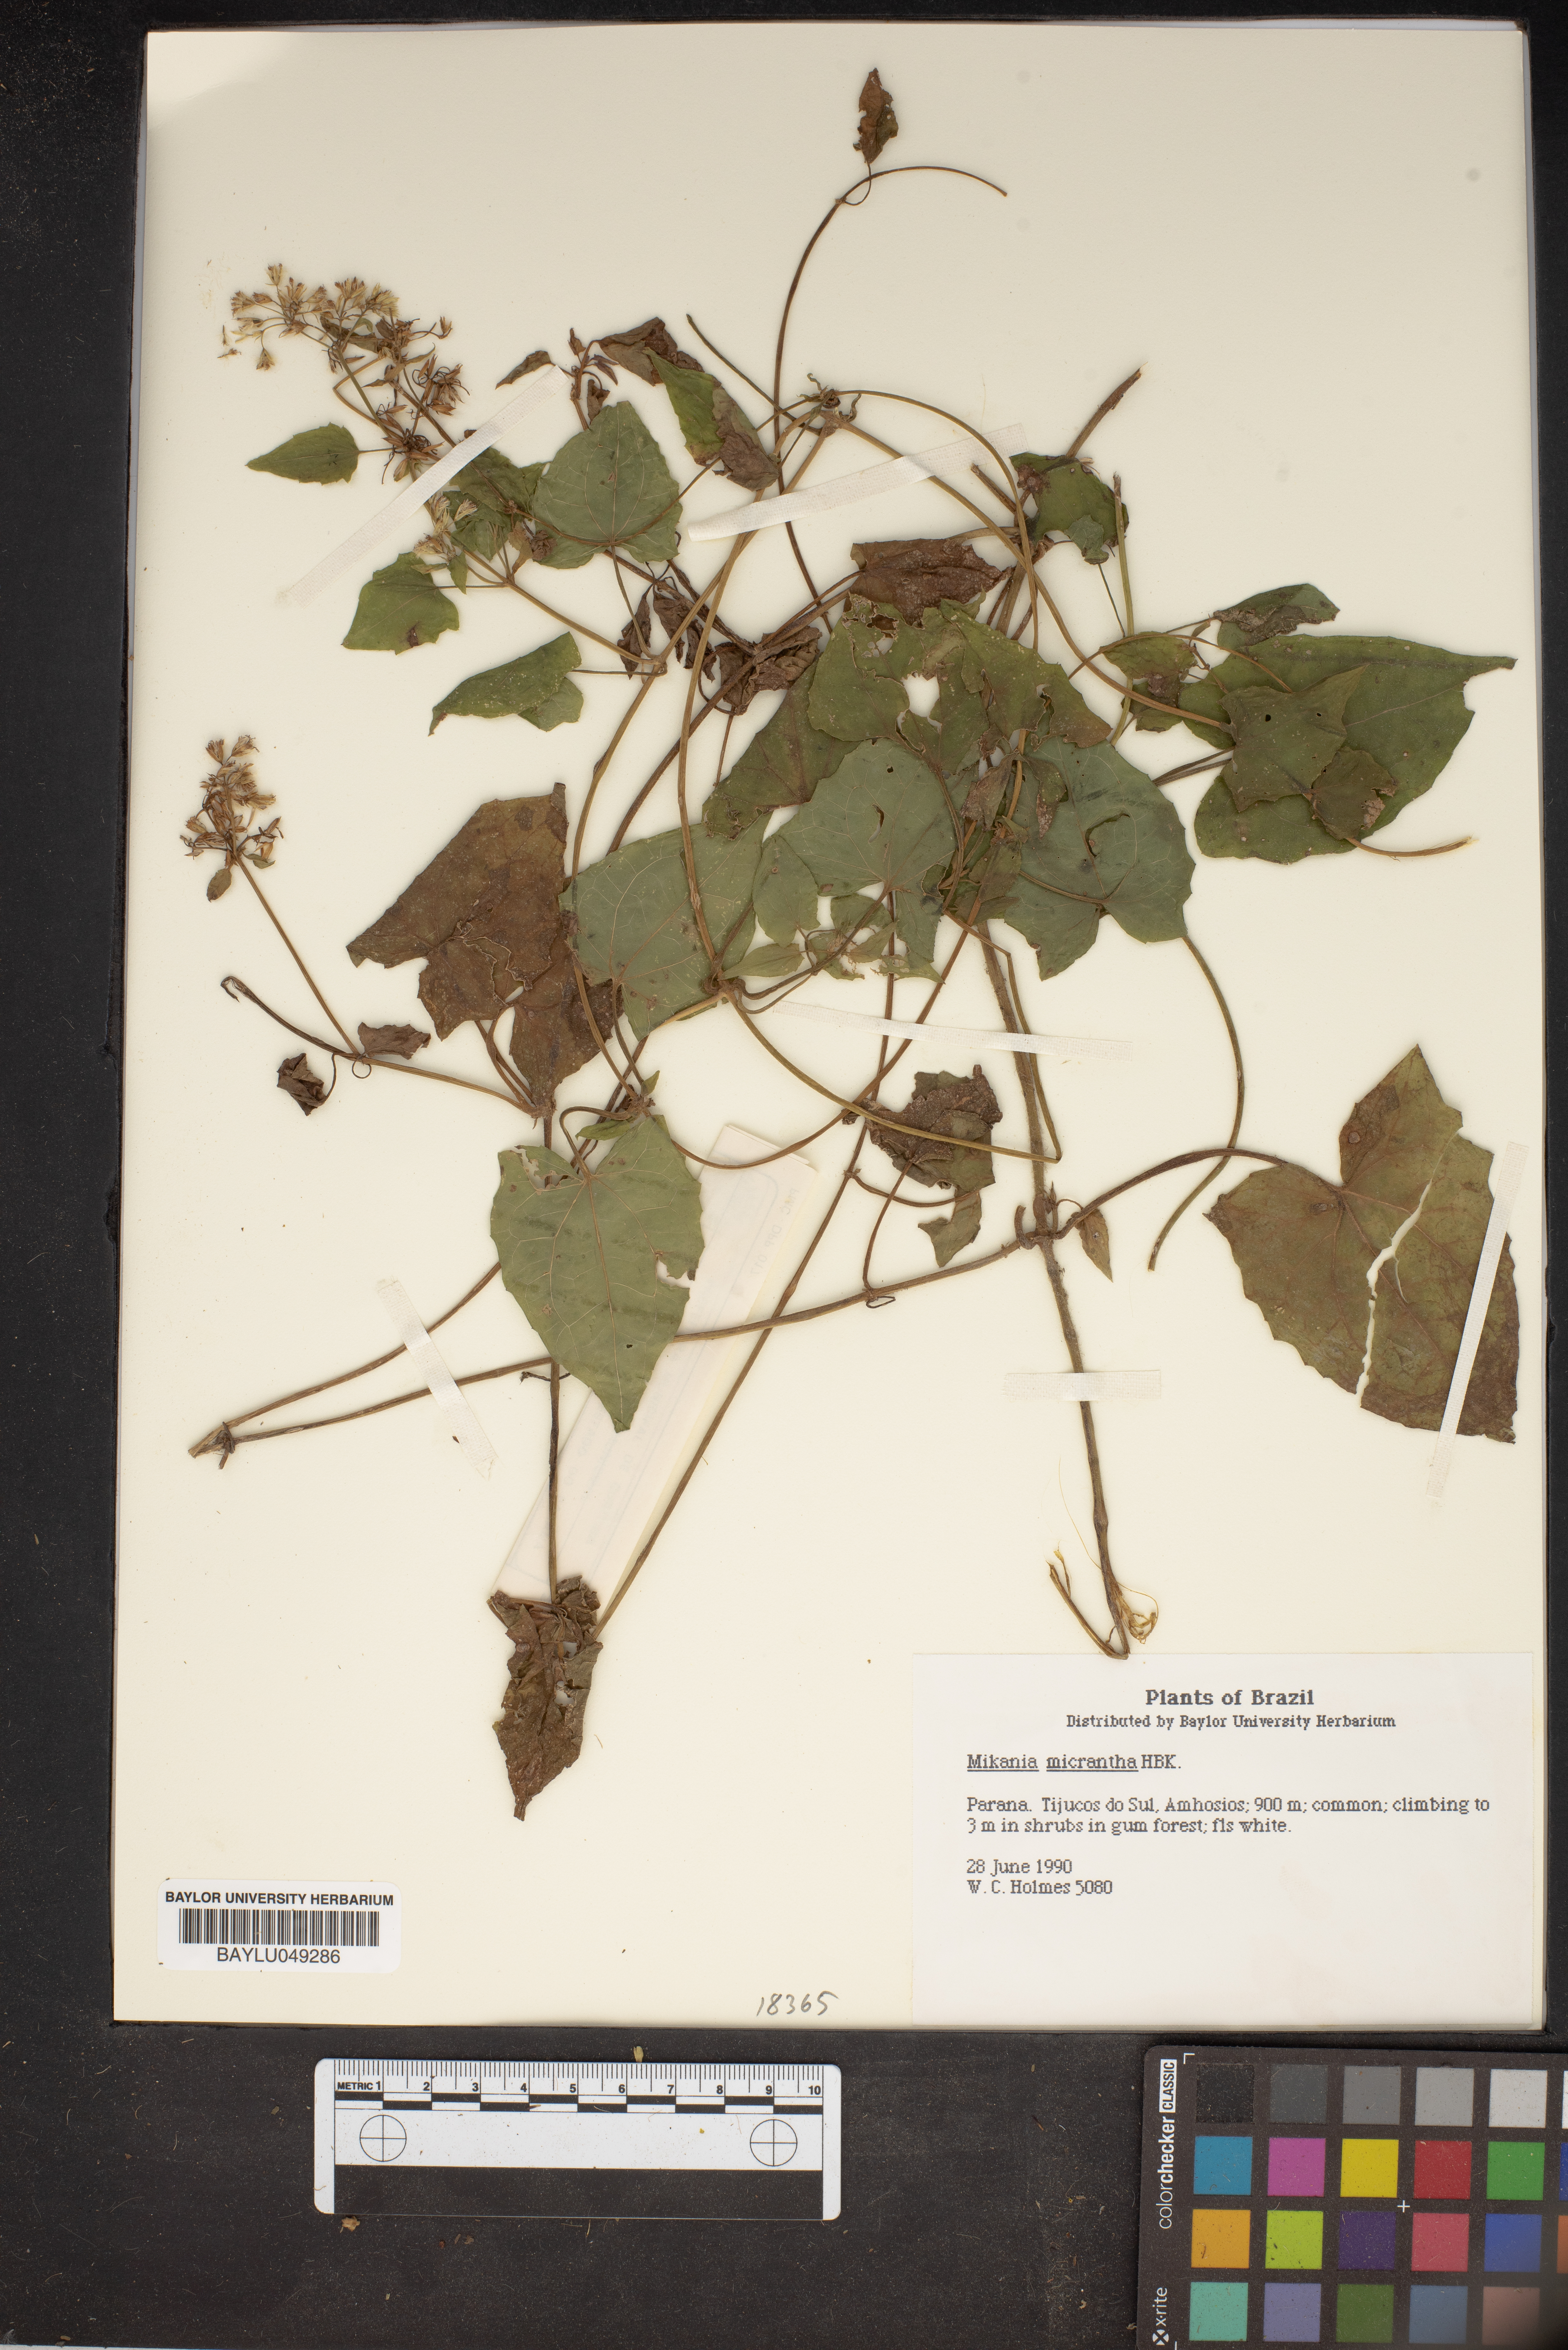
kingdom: Plantae
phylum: Tracheophyta
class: Magnoliopsida
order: Asterales
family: Asteraceae
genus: Mikania
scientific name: Mikania micrantha
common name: Mile-a-minute
